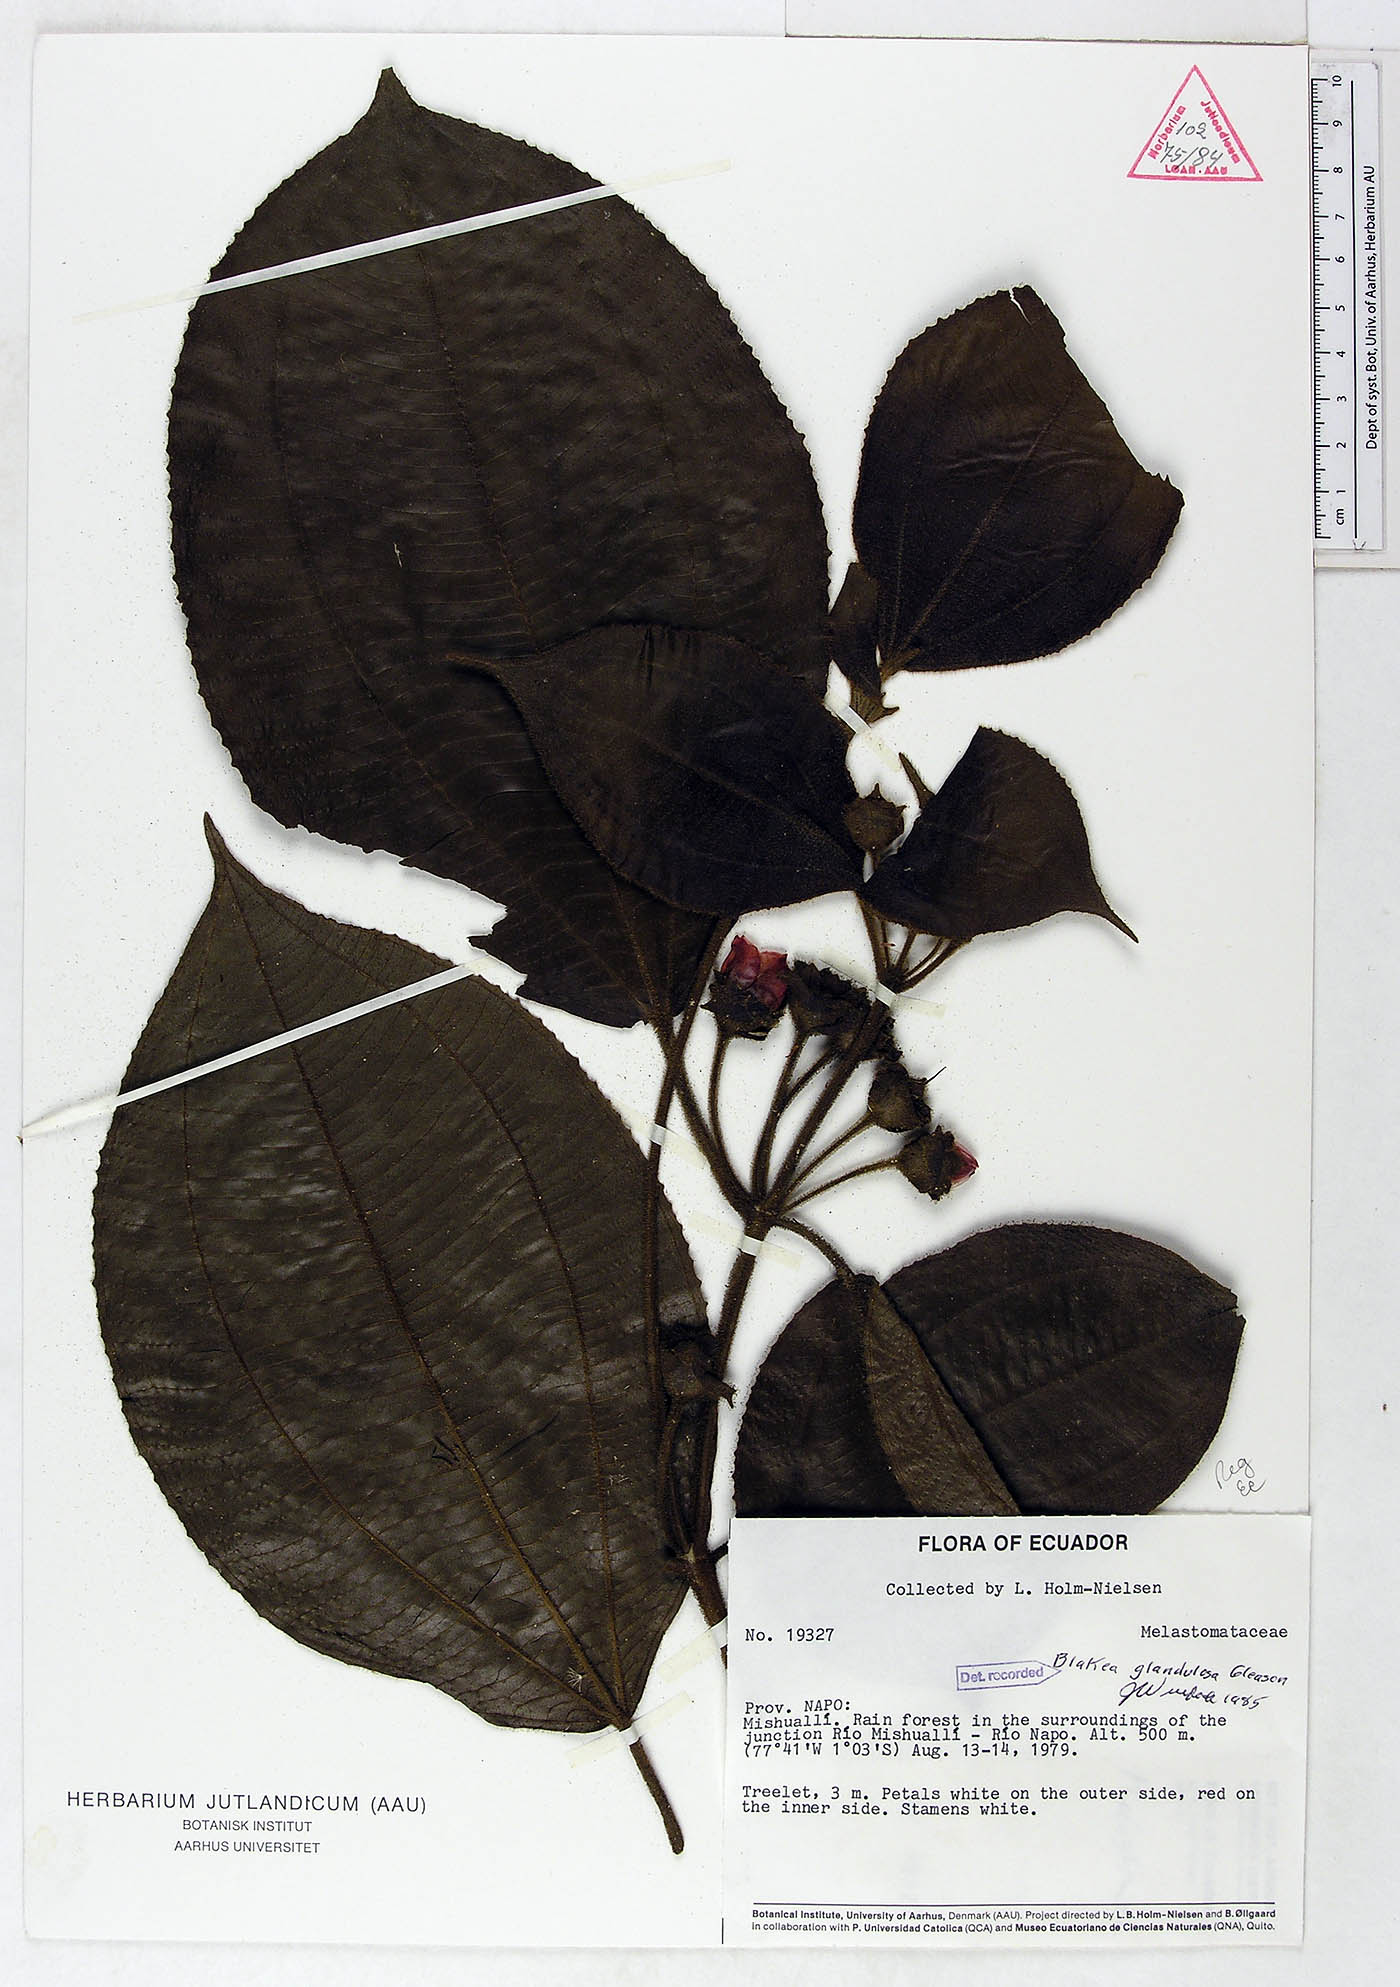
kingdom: Plantae
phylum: Tracheophyta
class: Magnoliopsida
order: Myrtales
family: Melastomataceae
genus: Blakea
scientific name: Blakea glandulosa
